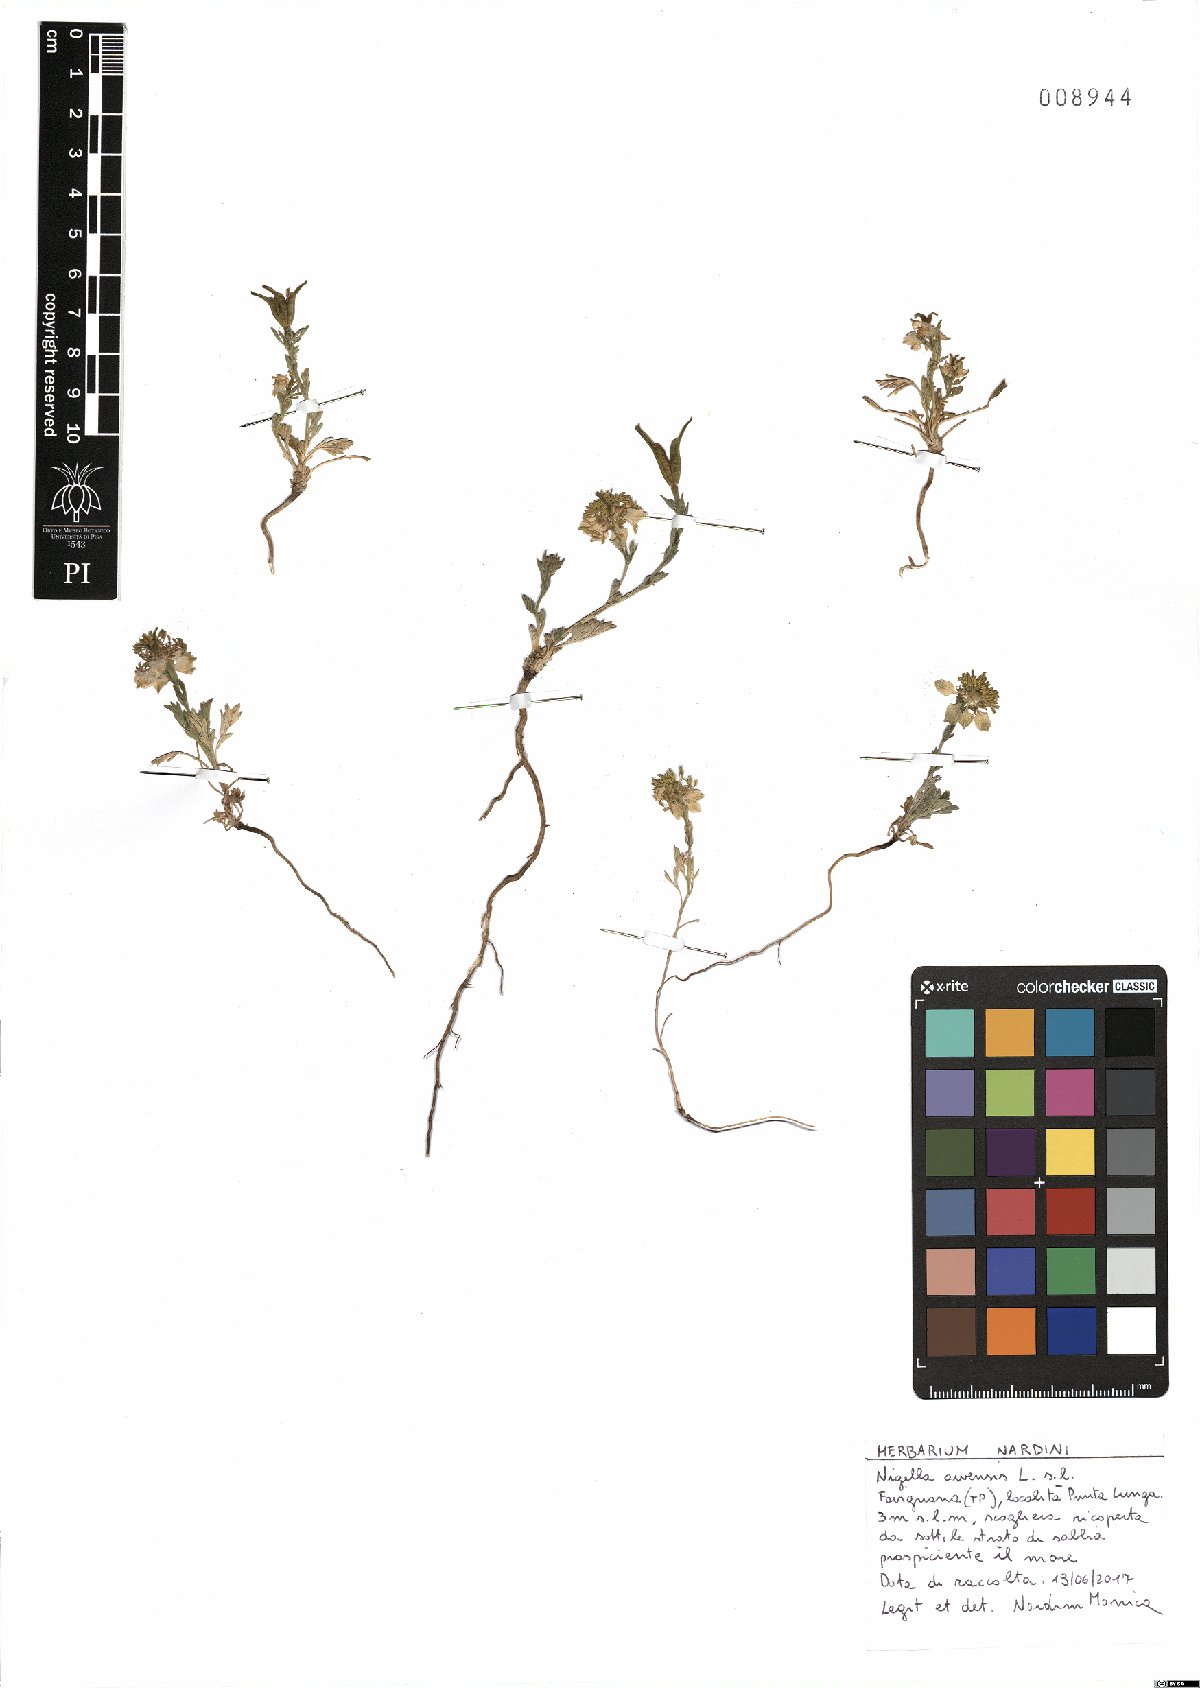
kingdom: Plantae
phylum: Tracheophyta
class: Magnoliopsida
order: Ranunculales
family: Ranunculaceae
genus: Nigella
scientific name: Nigella arvensis
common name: Wild fennel-flower
